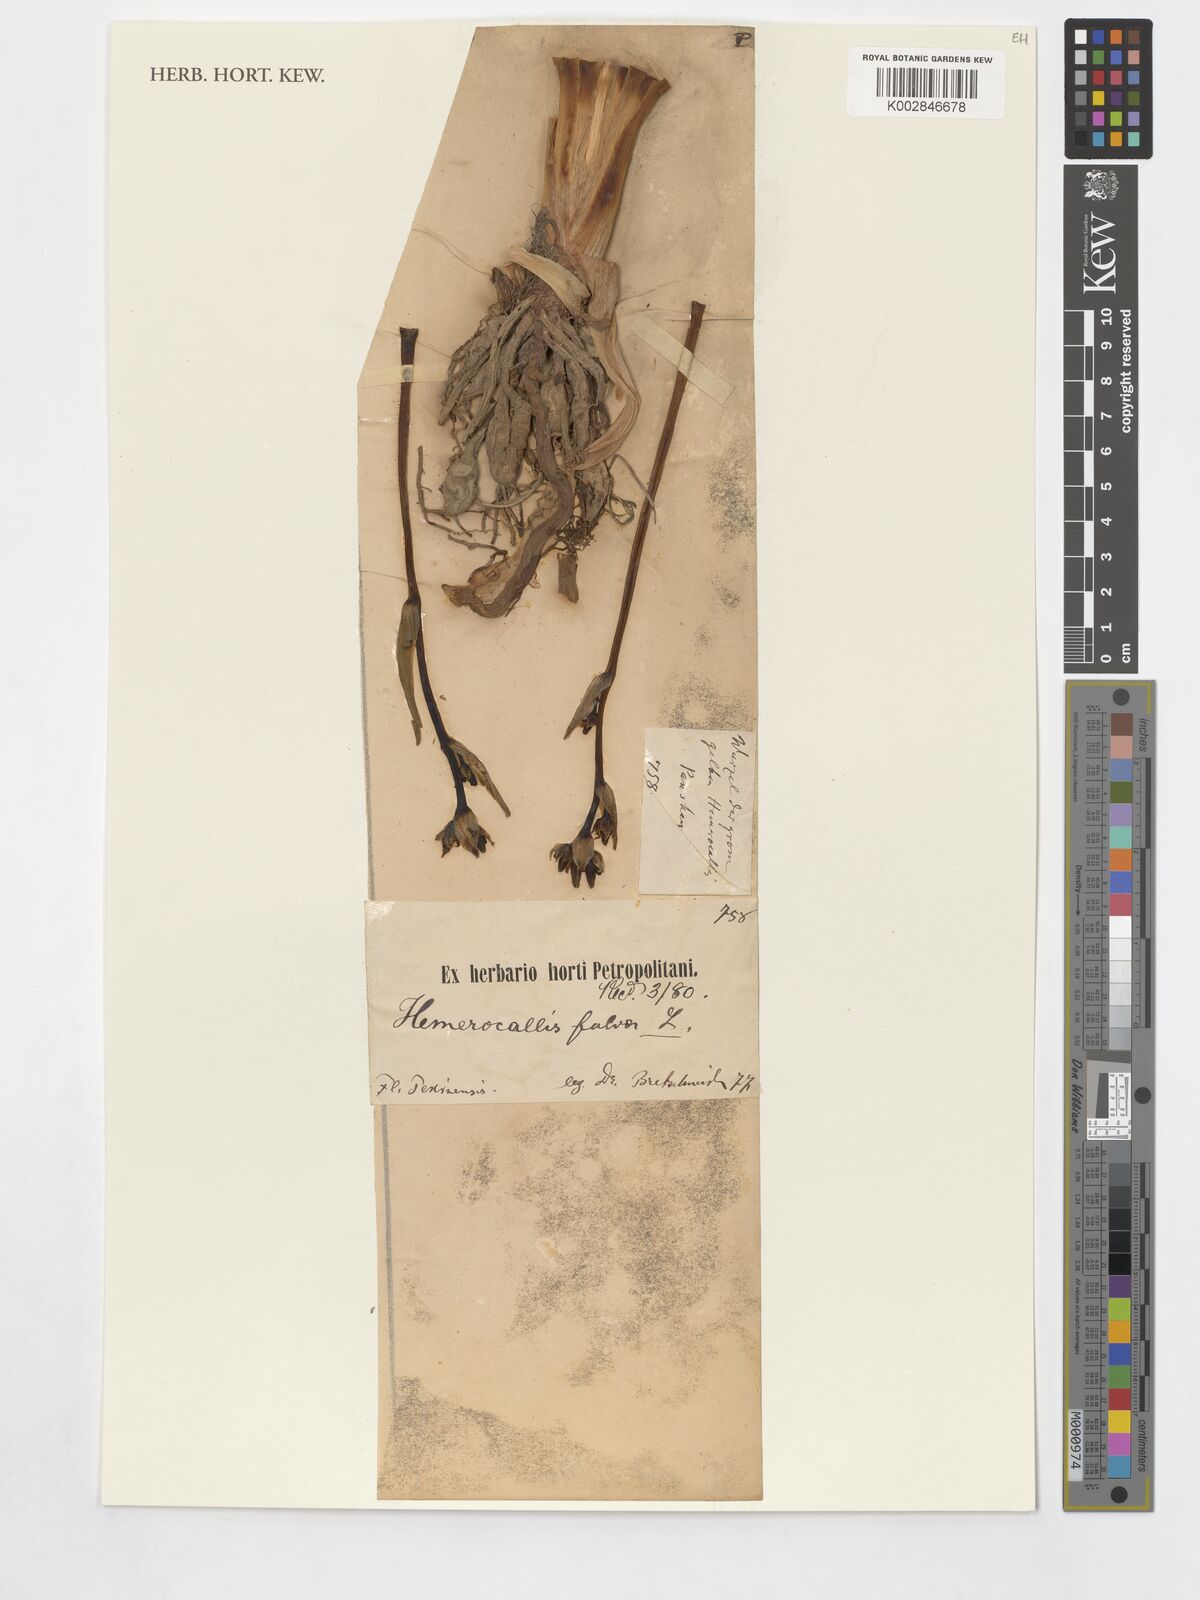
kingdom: Plantae
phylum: Tracheophyta
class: Liliopsida
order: Asparagales
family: Asphodelaceae
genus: Hemerocallis
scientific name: Hemerocallis fulva
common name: Orange day-lily
